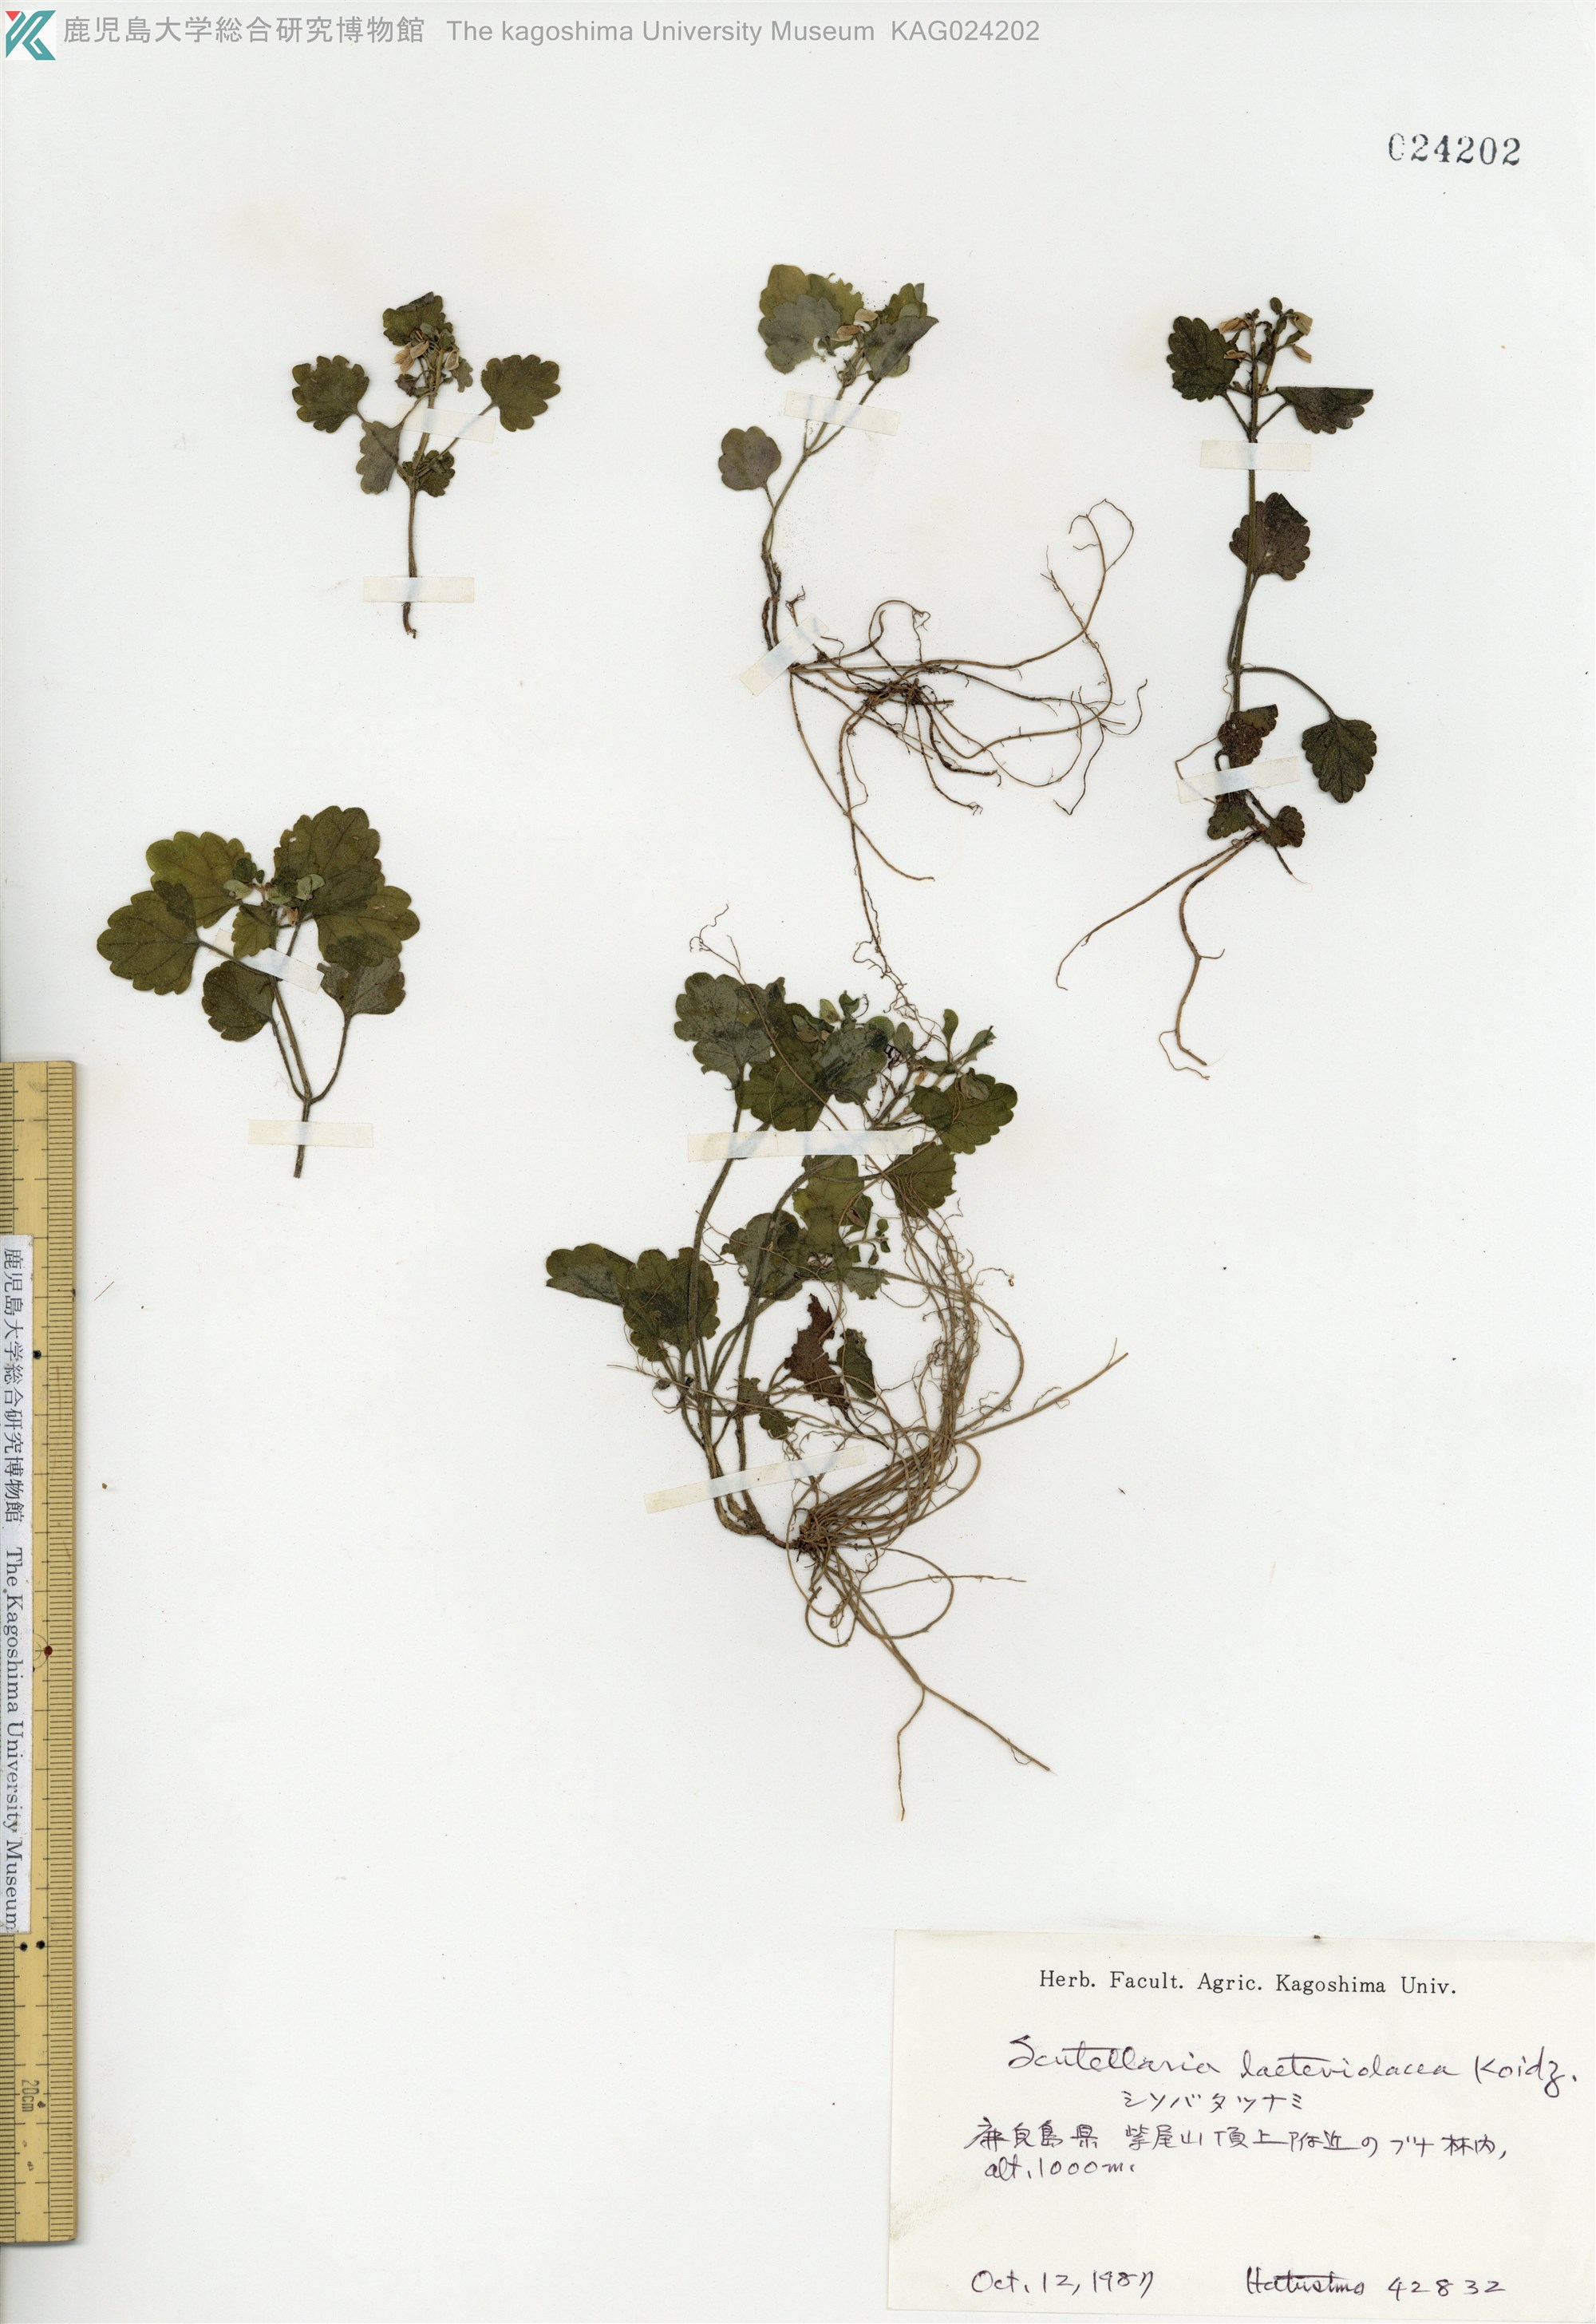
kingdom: Plantae
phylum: Tracheophyta
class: Magnoliopsida
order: Lamiales
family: Lamiaceae
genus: Scutellaria
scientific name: Scutellaria laeteviolacea
